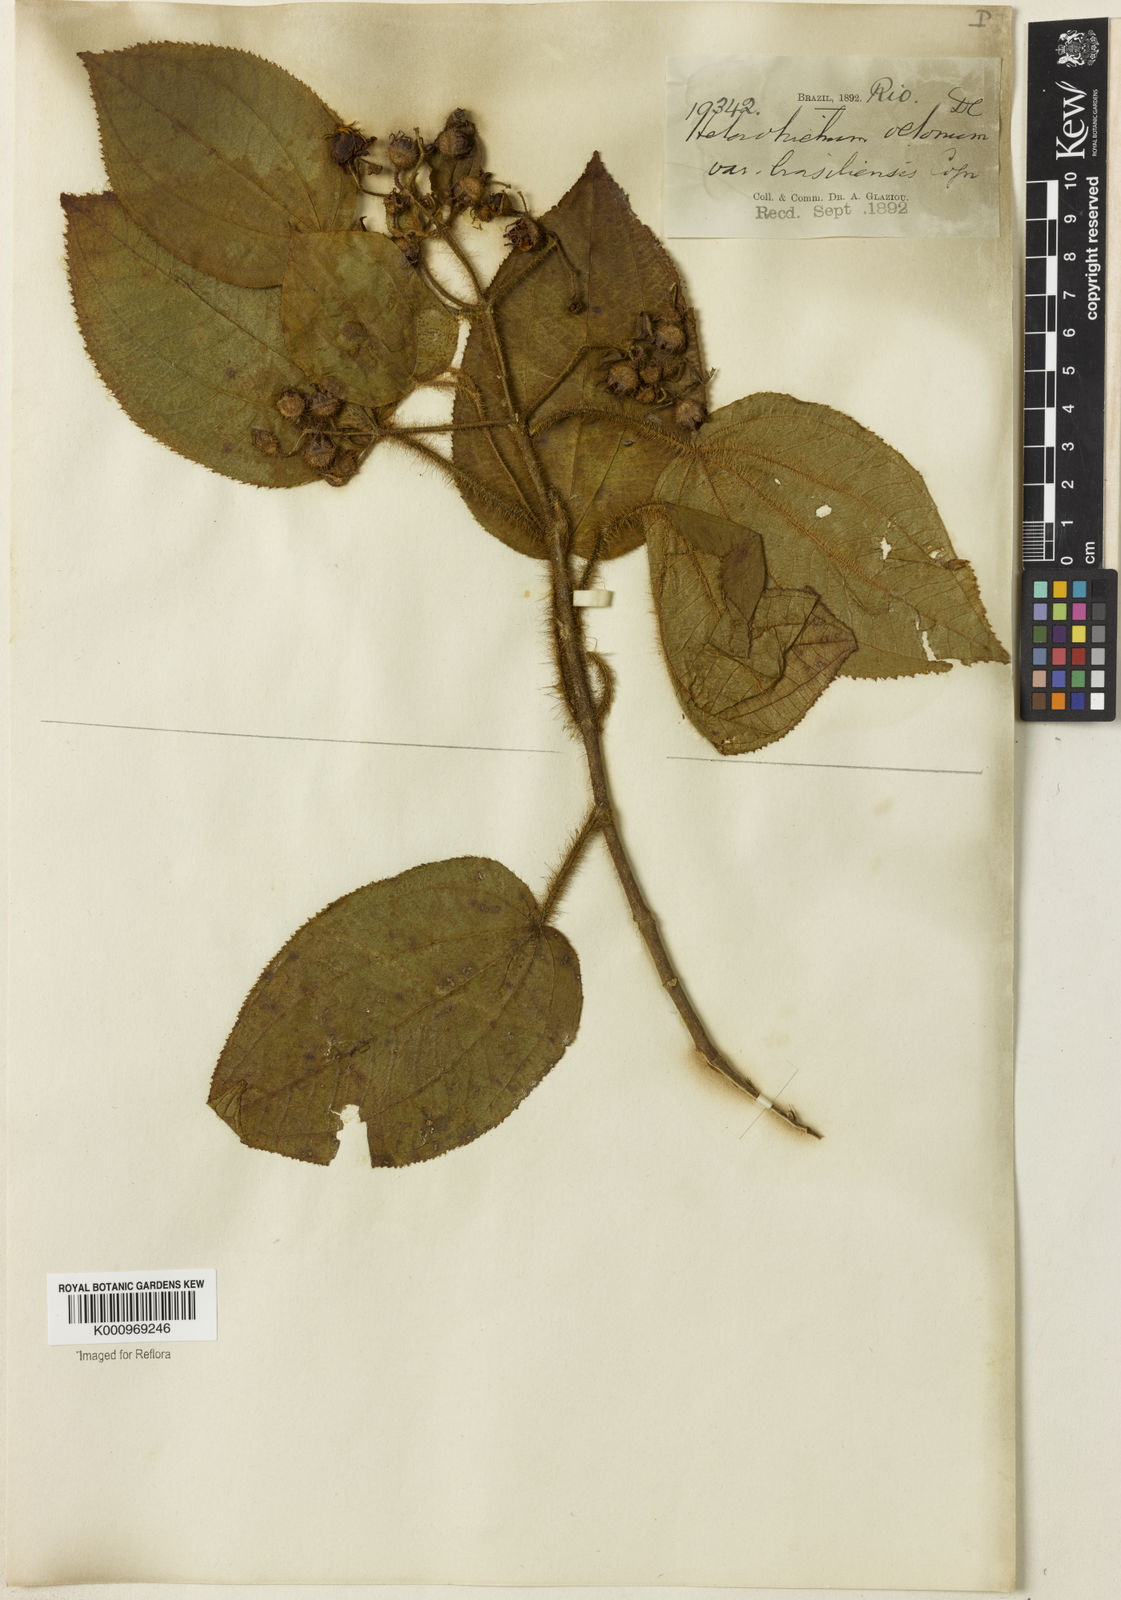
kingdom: Plantae
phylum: Tracheophyta
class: Magnoliopsida
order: Myrtales
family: Melastomataceae
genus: Miconia
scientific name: Miconia octona
